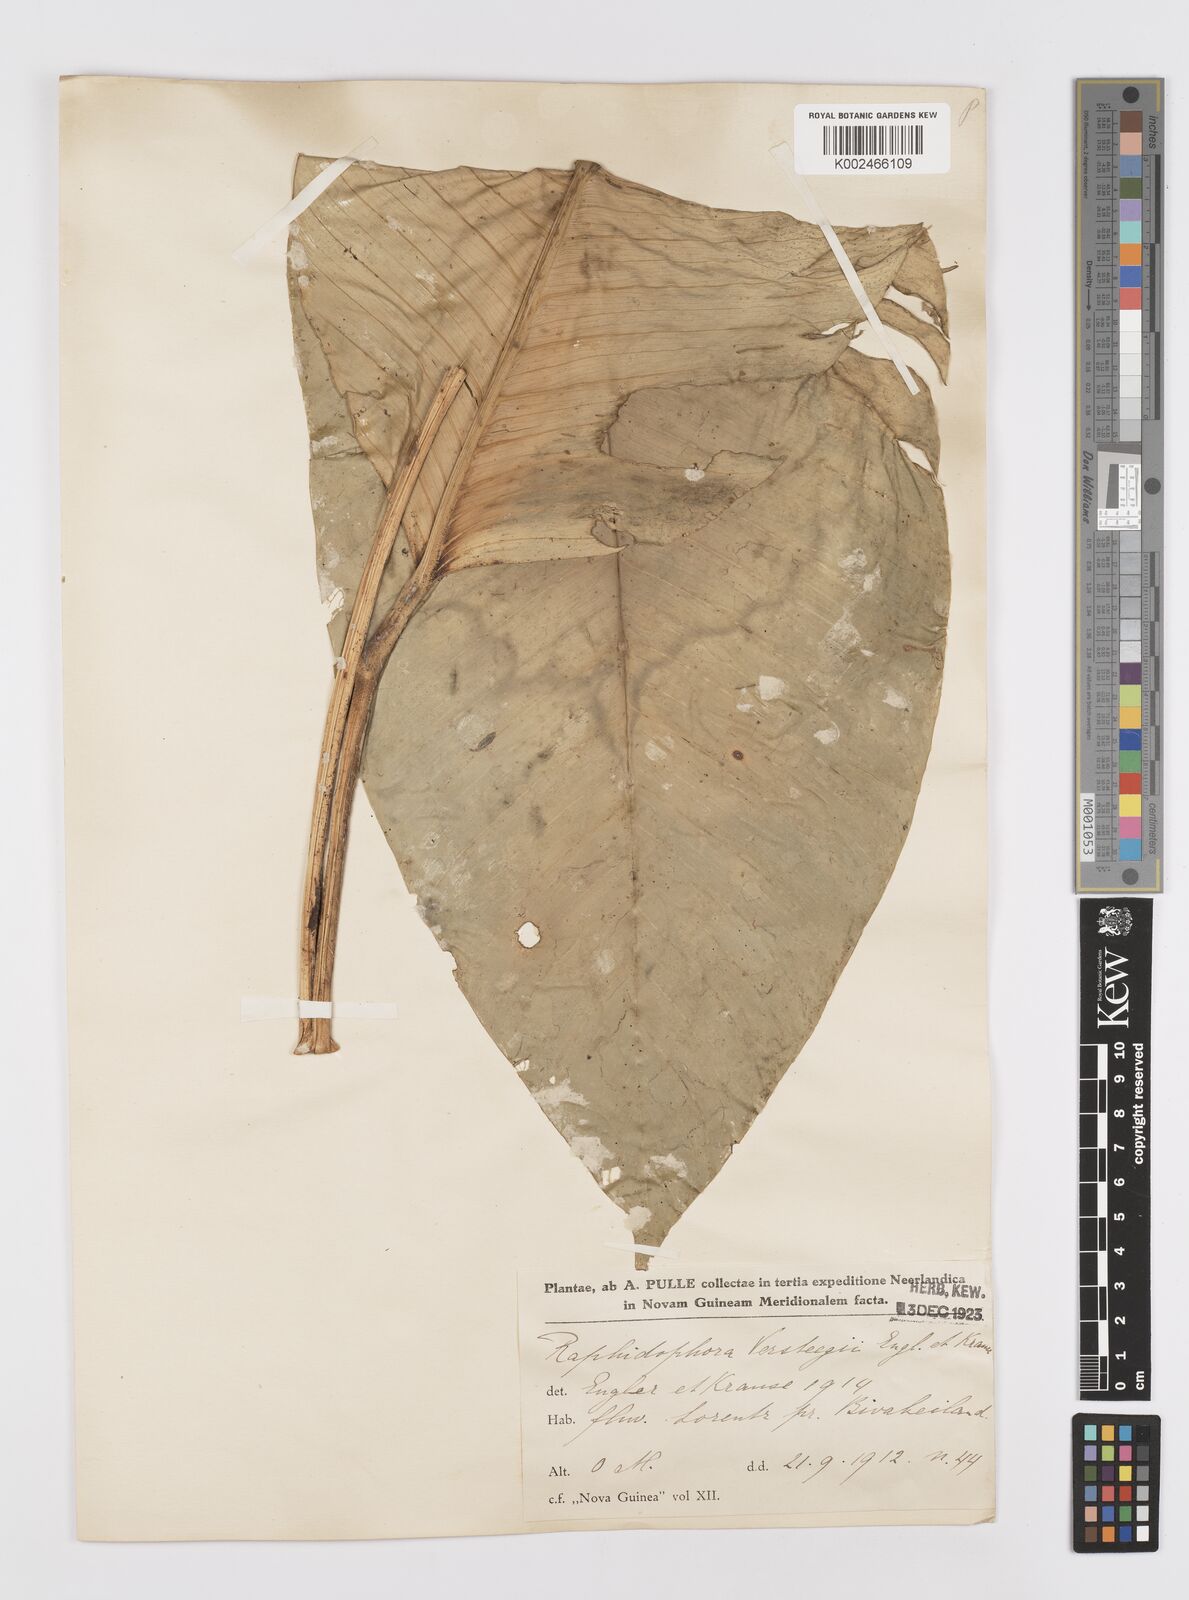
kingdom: Plantae
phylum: Tracheophyta
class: Liliopsida
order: Alismatales
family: Araceae
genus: Rhaphidophora
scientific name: Rhaphidophora versteegii
